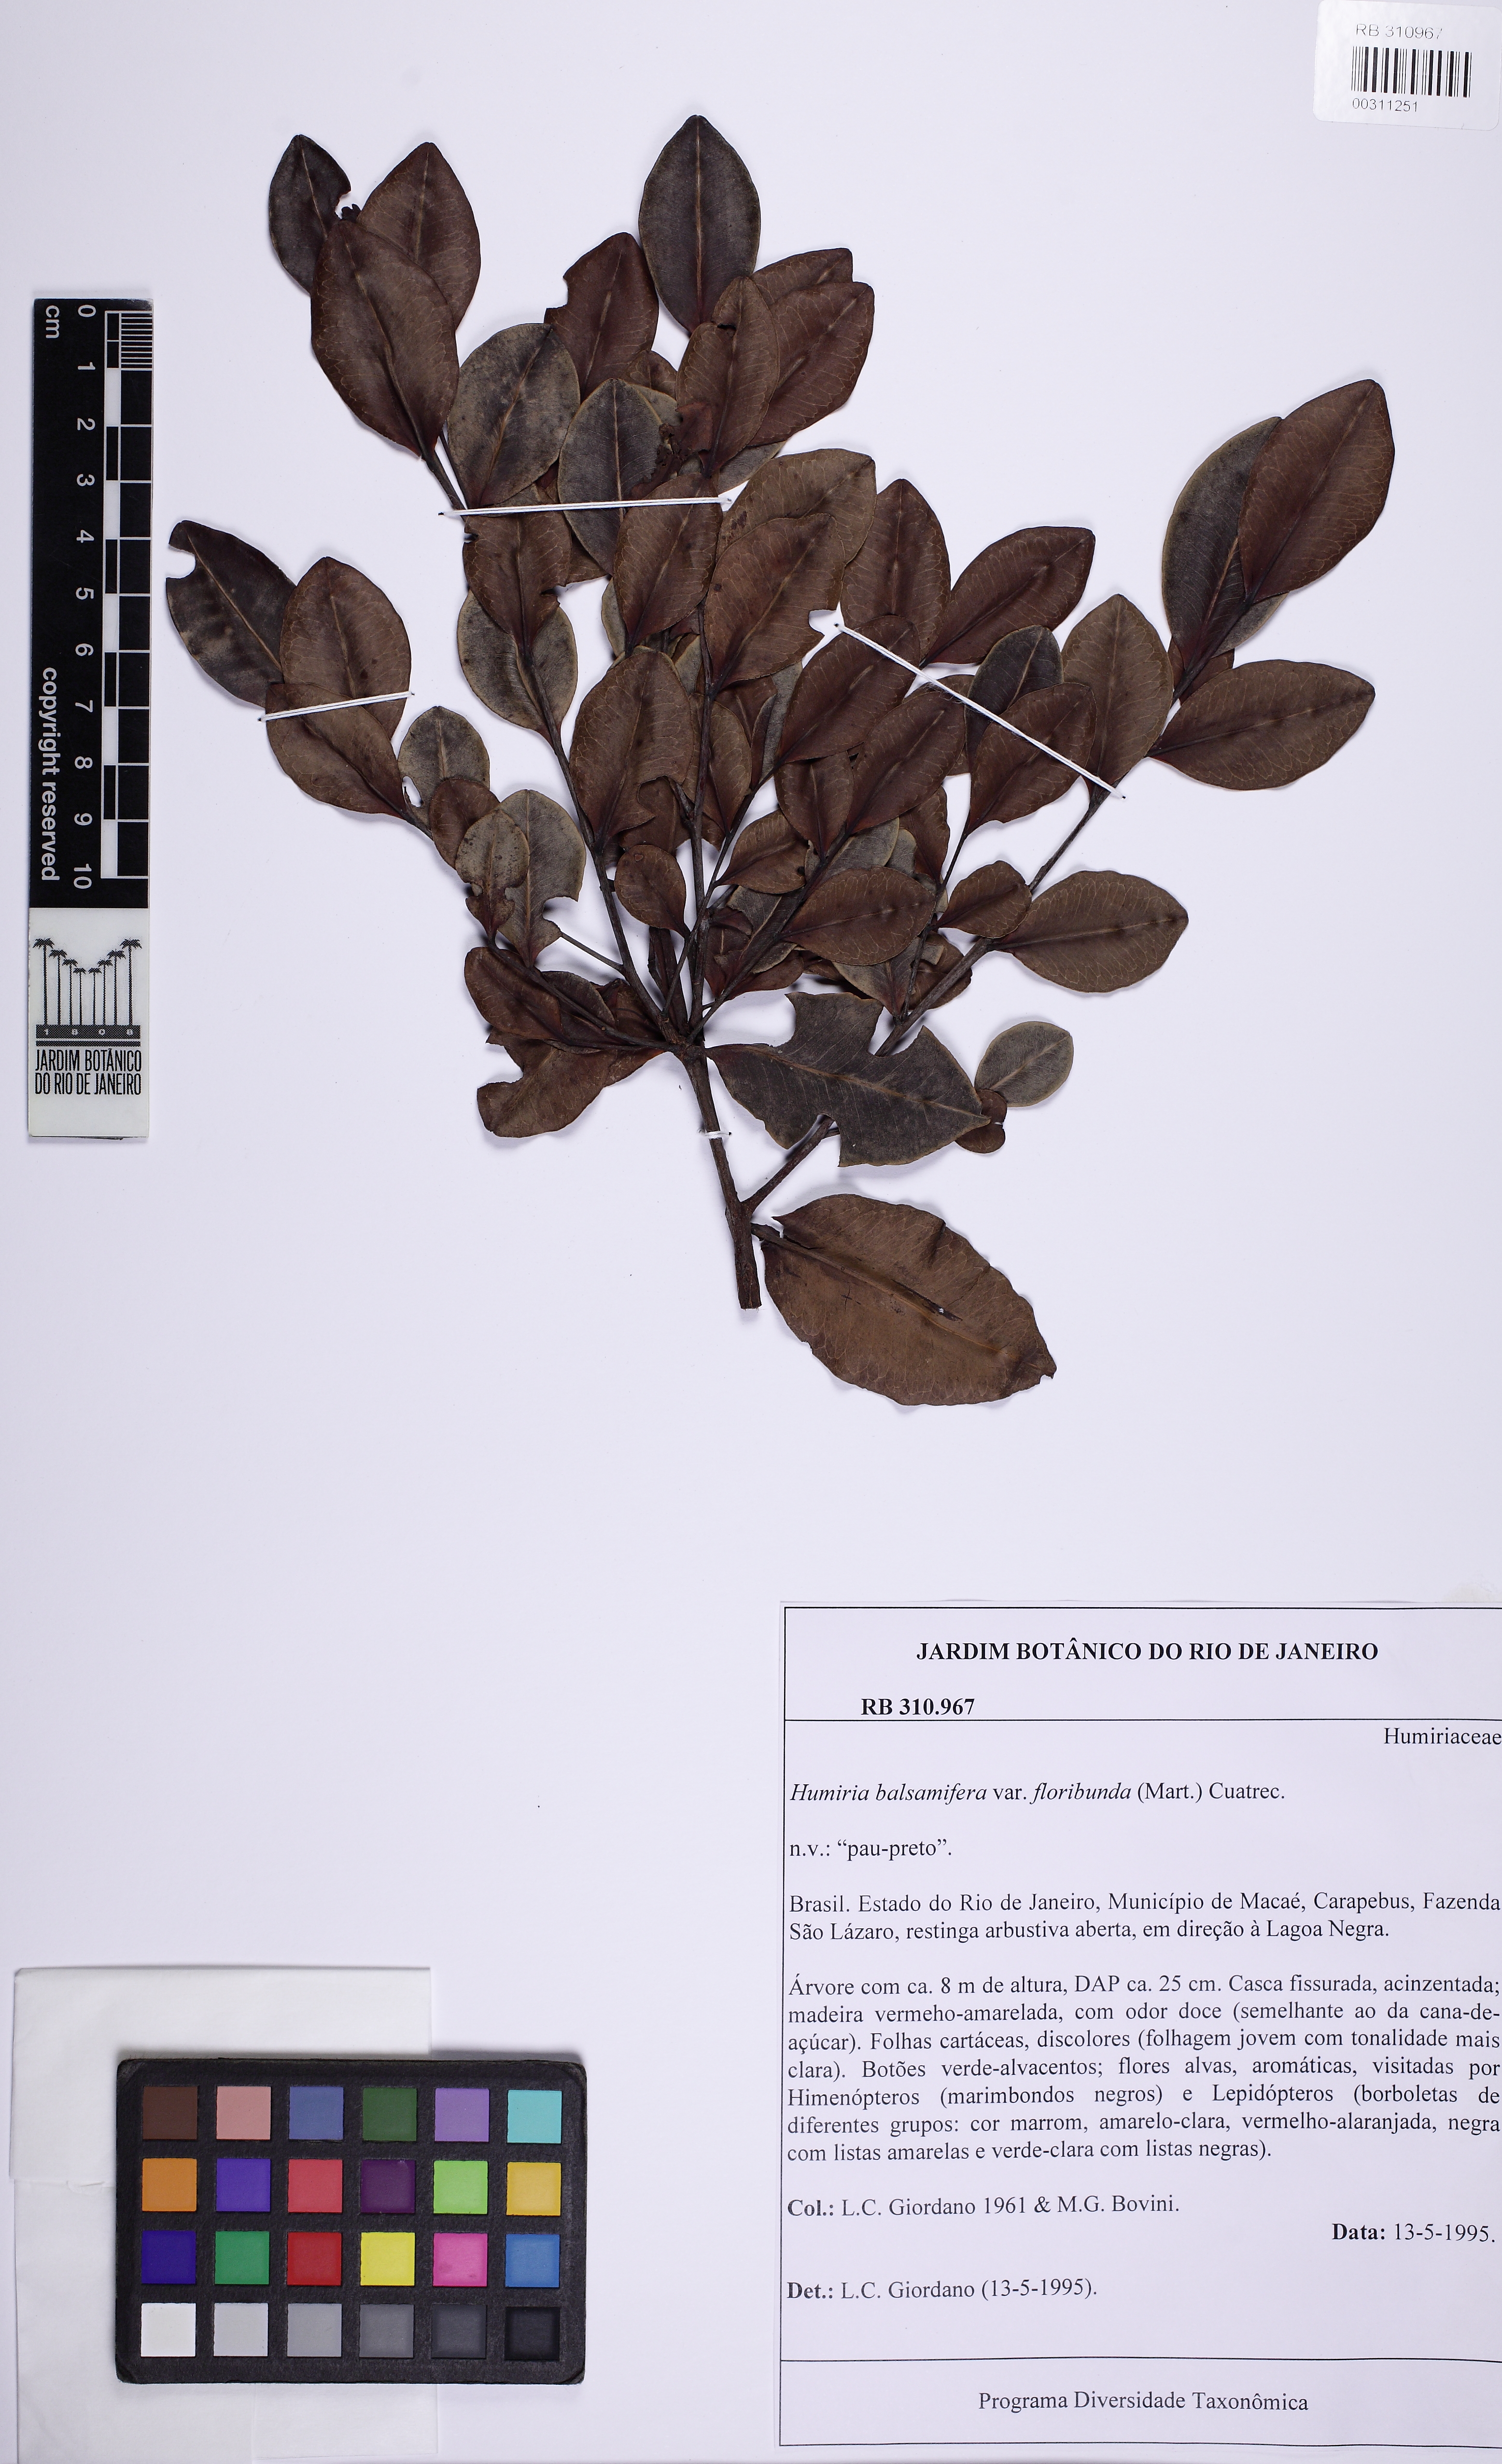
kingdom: Plantae
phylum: Tracheophyta
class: Magnoliopsida
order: Malpighiales
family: Humiriaceae
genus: Humiria
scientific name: Humiria balsamifera
